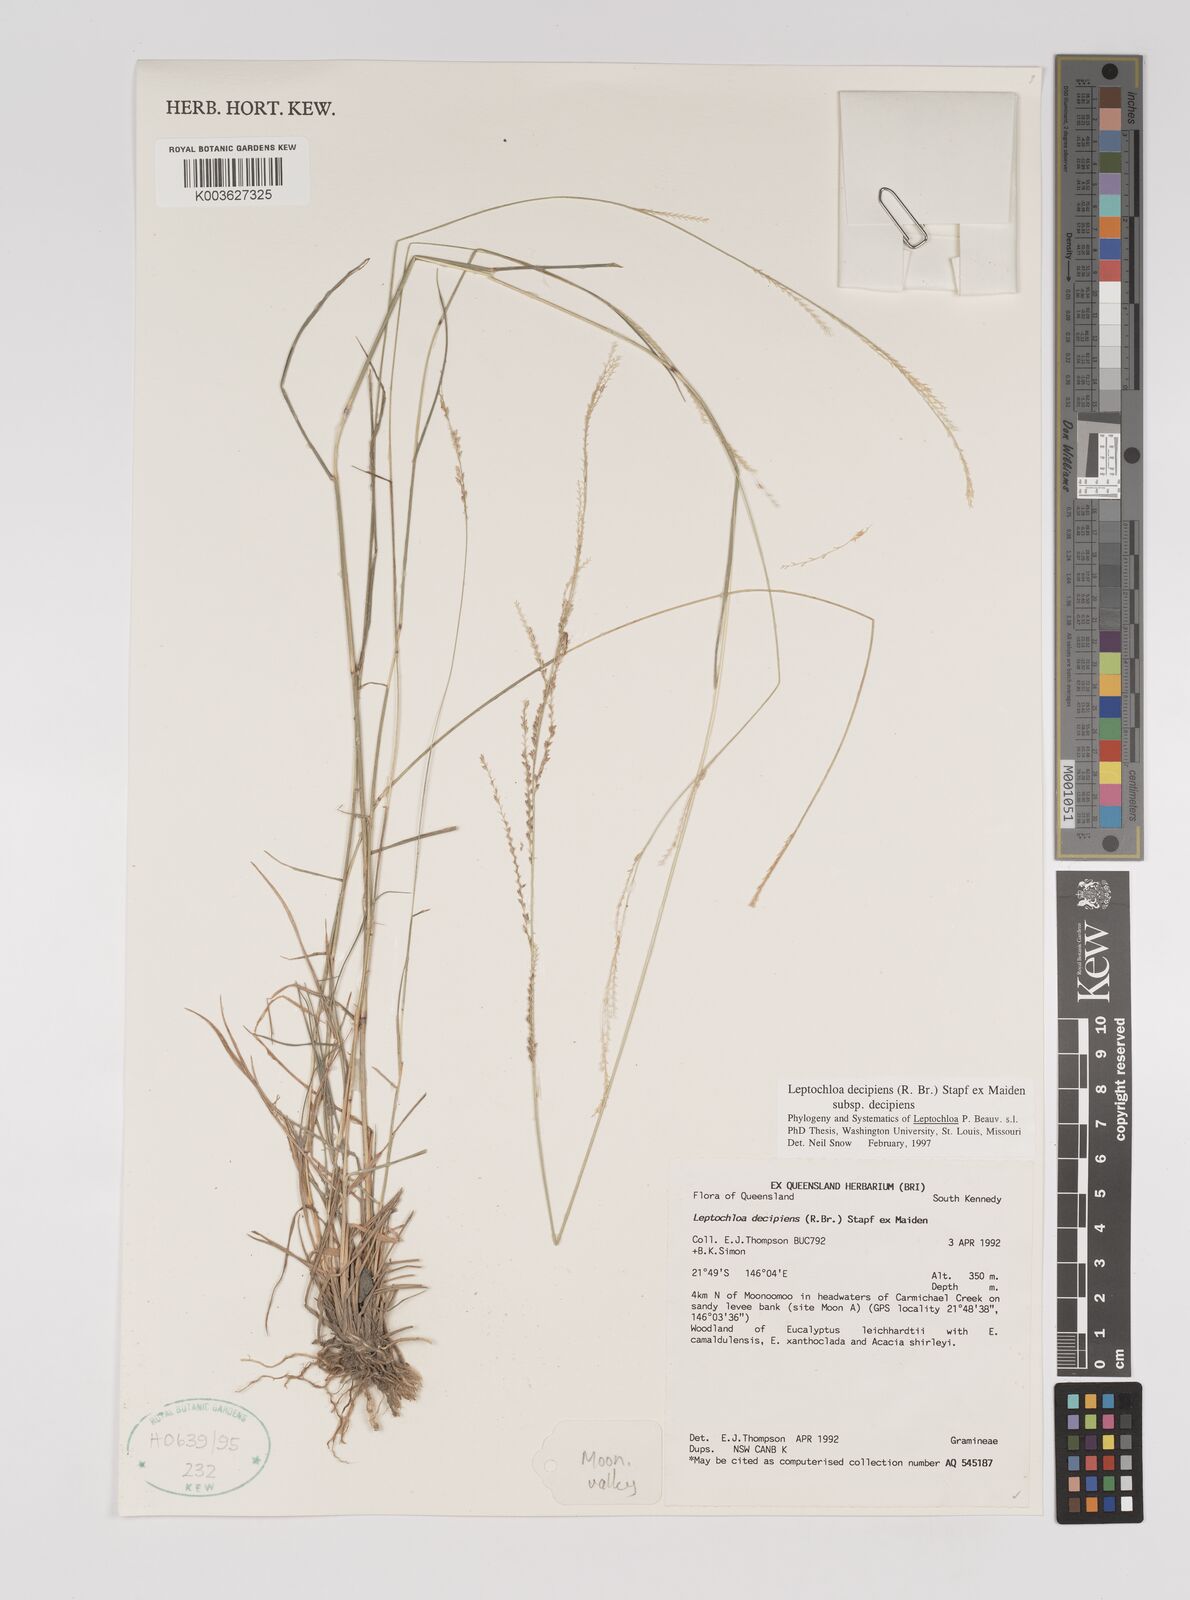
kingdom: Plantae
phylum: Tracheophyta
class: Liliopsida
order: Poales
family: Poaceae
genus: Leptochloa
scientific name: Leptochloa decipiens
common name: Australian sprangletop
